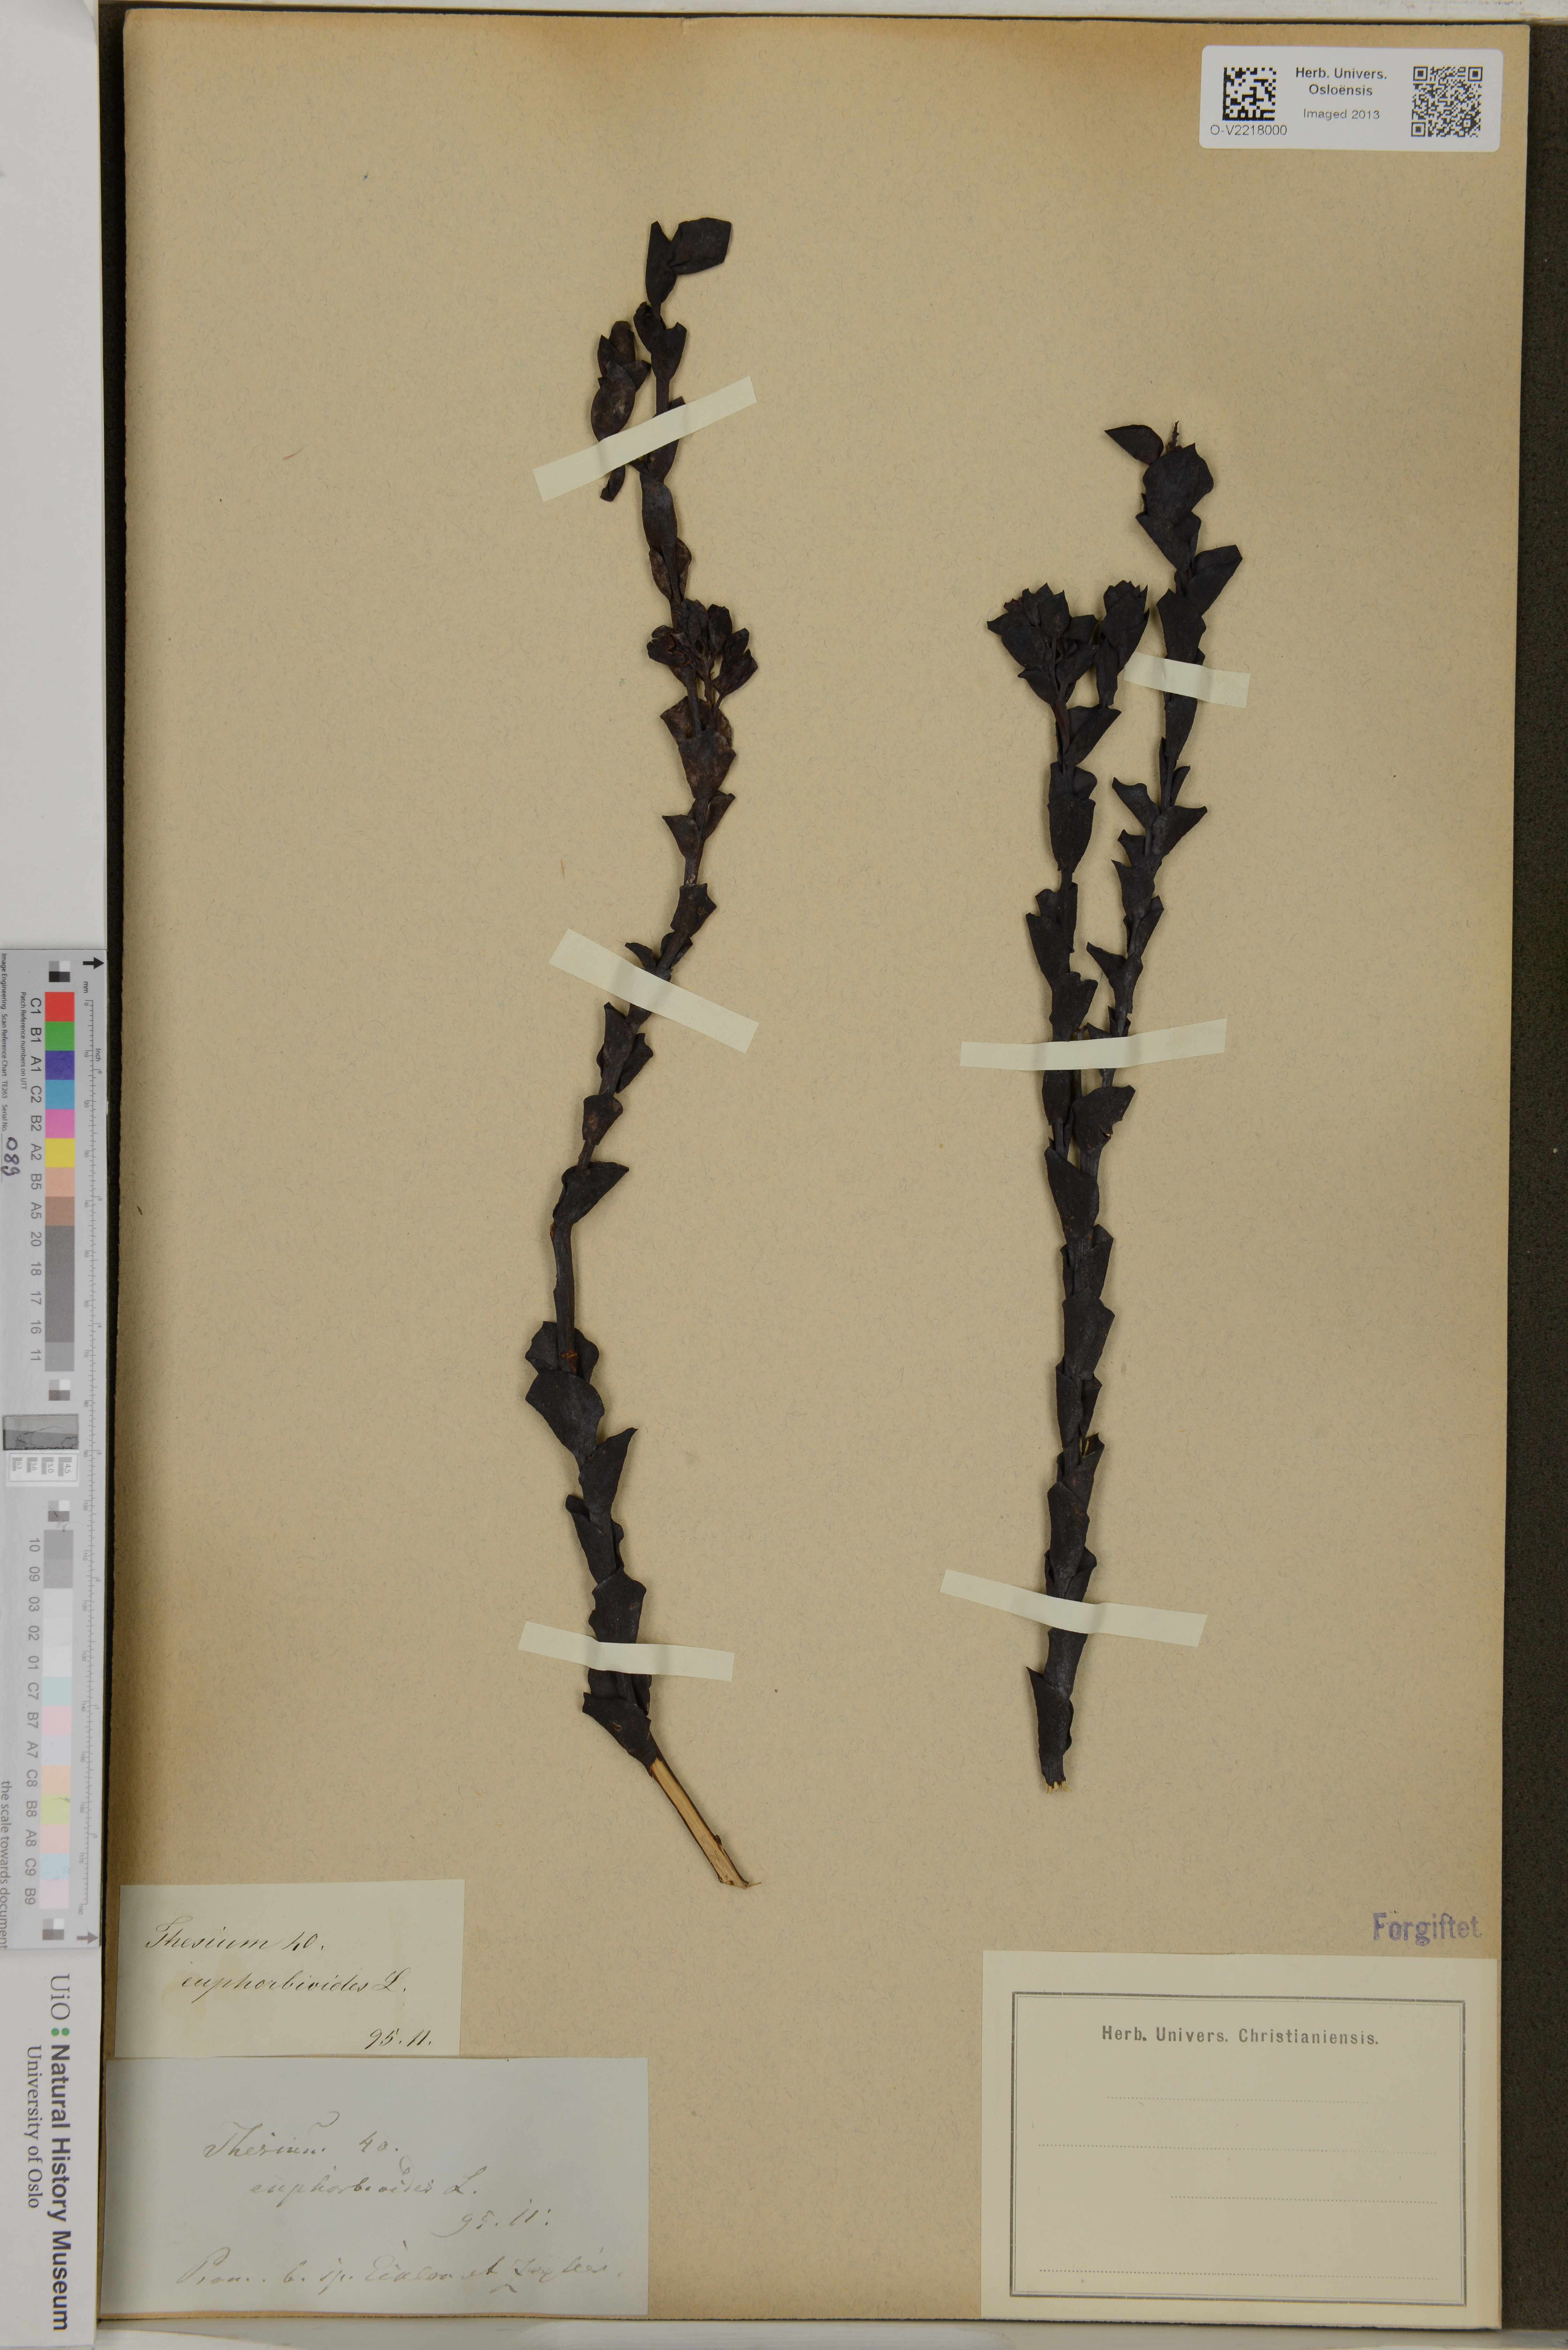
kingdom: Plantae
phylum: Tracheophyta
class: Magnoliopsida
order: Santalales
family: Thesiaceae
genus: Thesium
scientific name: Thesium euphorbioides
